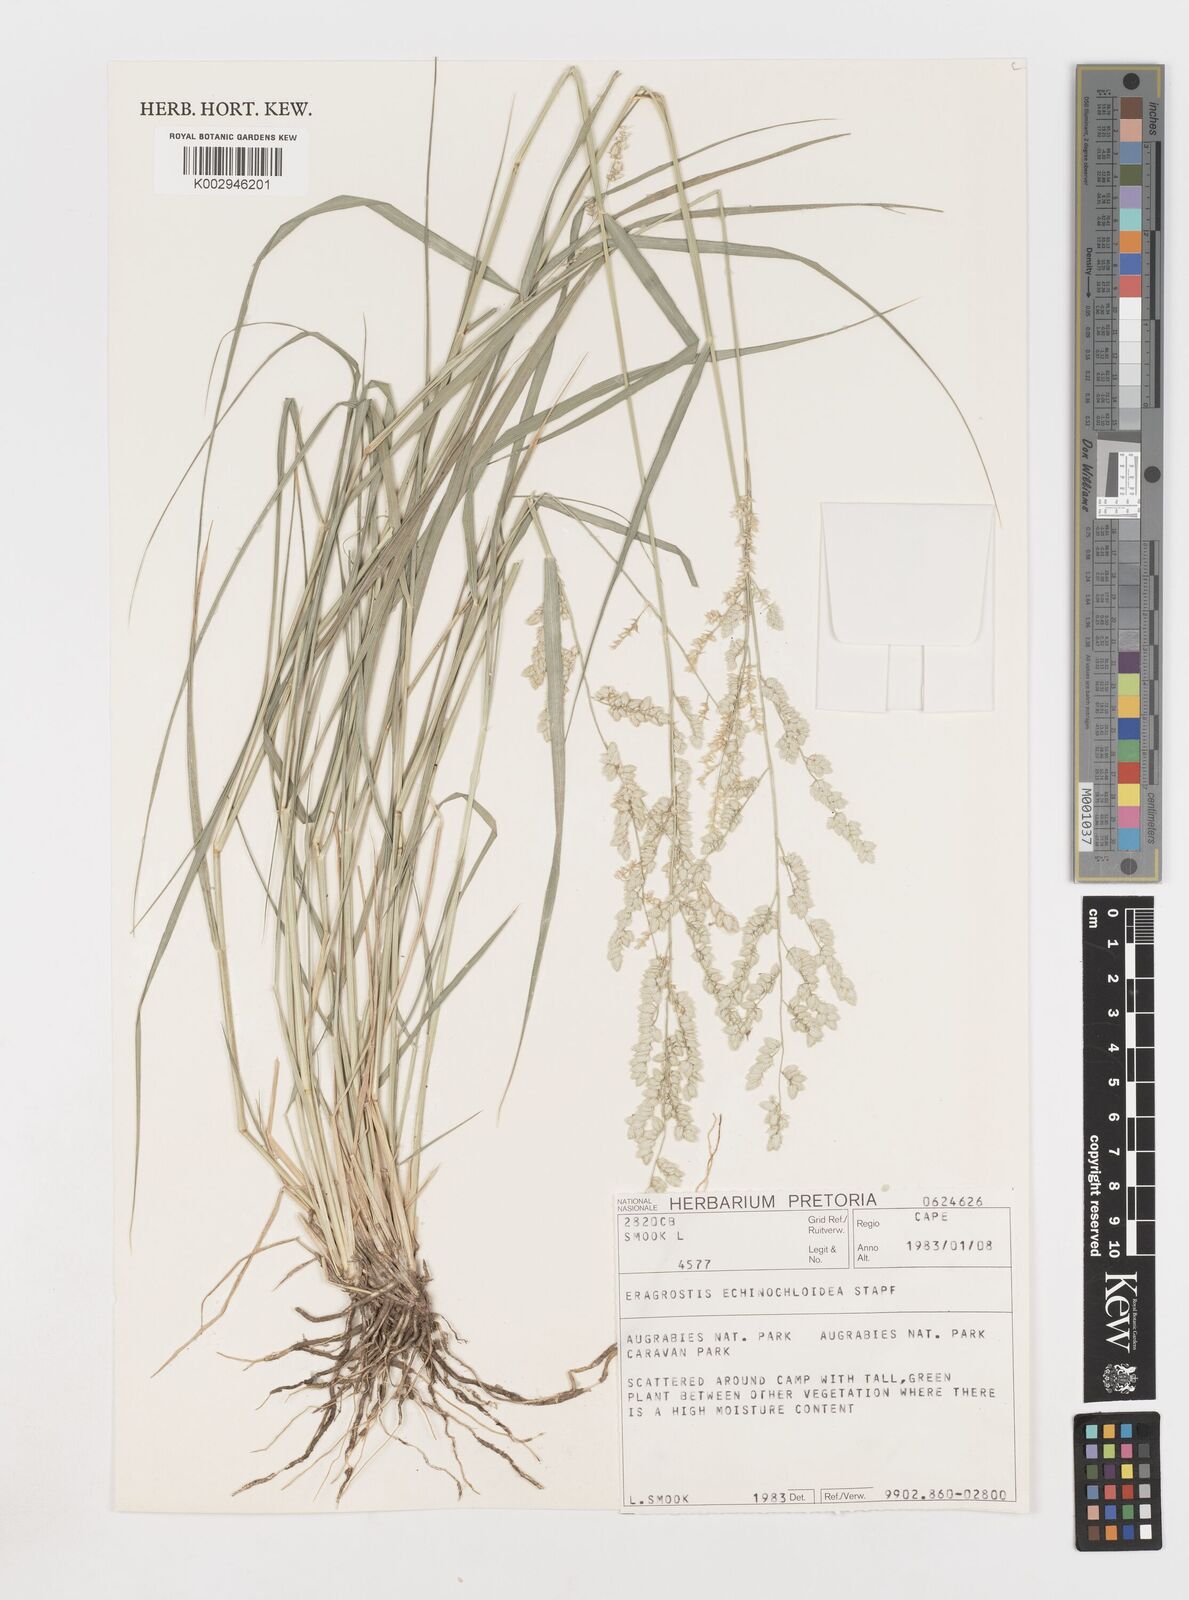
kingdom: Plantae
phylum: Tracheophyta
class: Liliopsida
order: Poales
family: Poaceae
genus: Eragrostis
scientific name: Eragrostis echinochloidea
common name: African lovegrass
